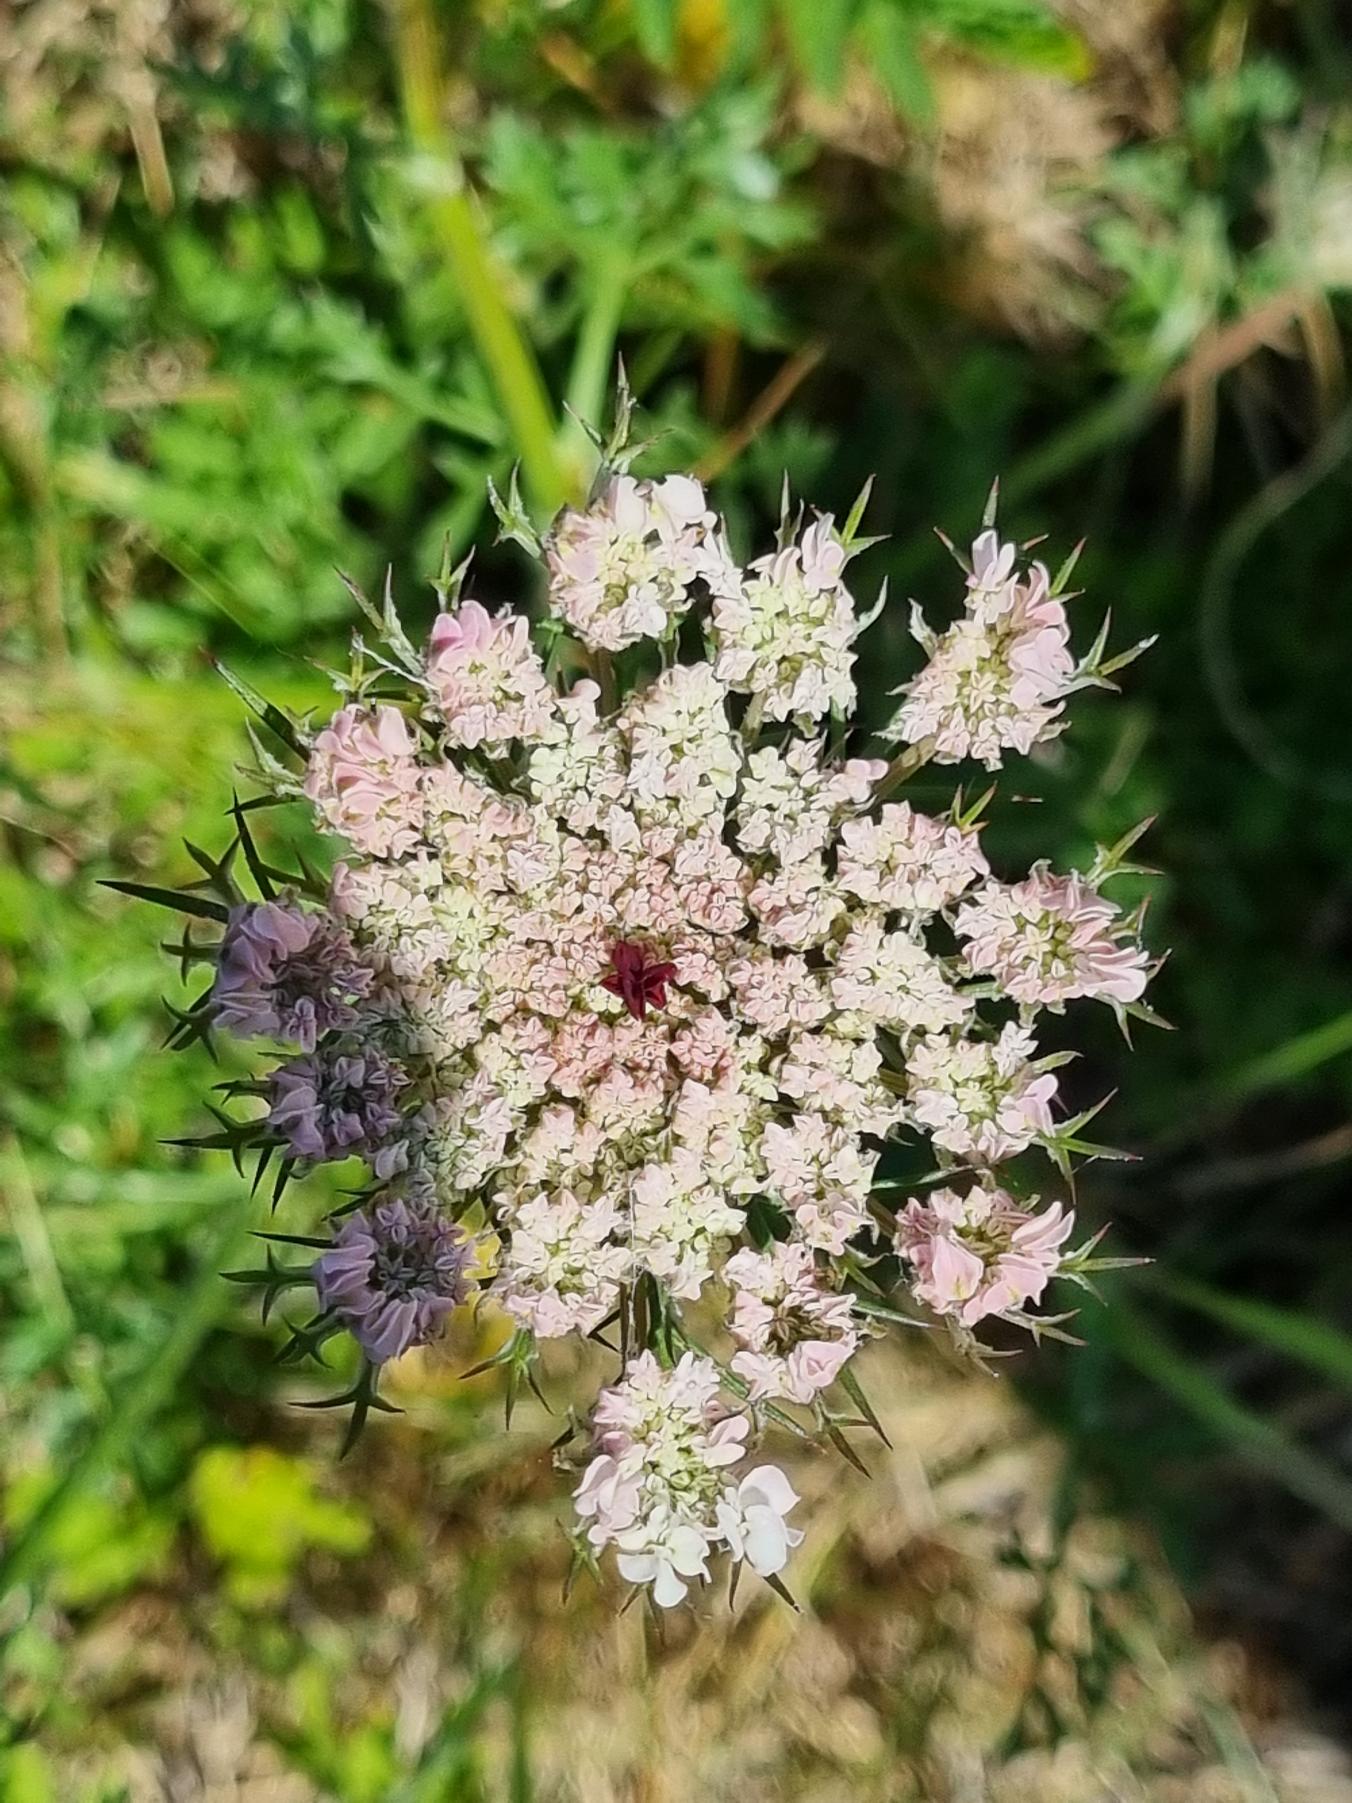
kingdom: Plantae
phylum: Tracheophyta
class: Magnoliopsida
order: Apiales
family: Apiaceae
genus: Daucus
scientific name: Daucus carota
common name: Vild gulerod
